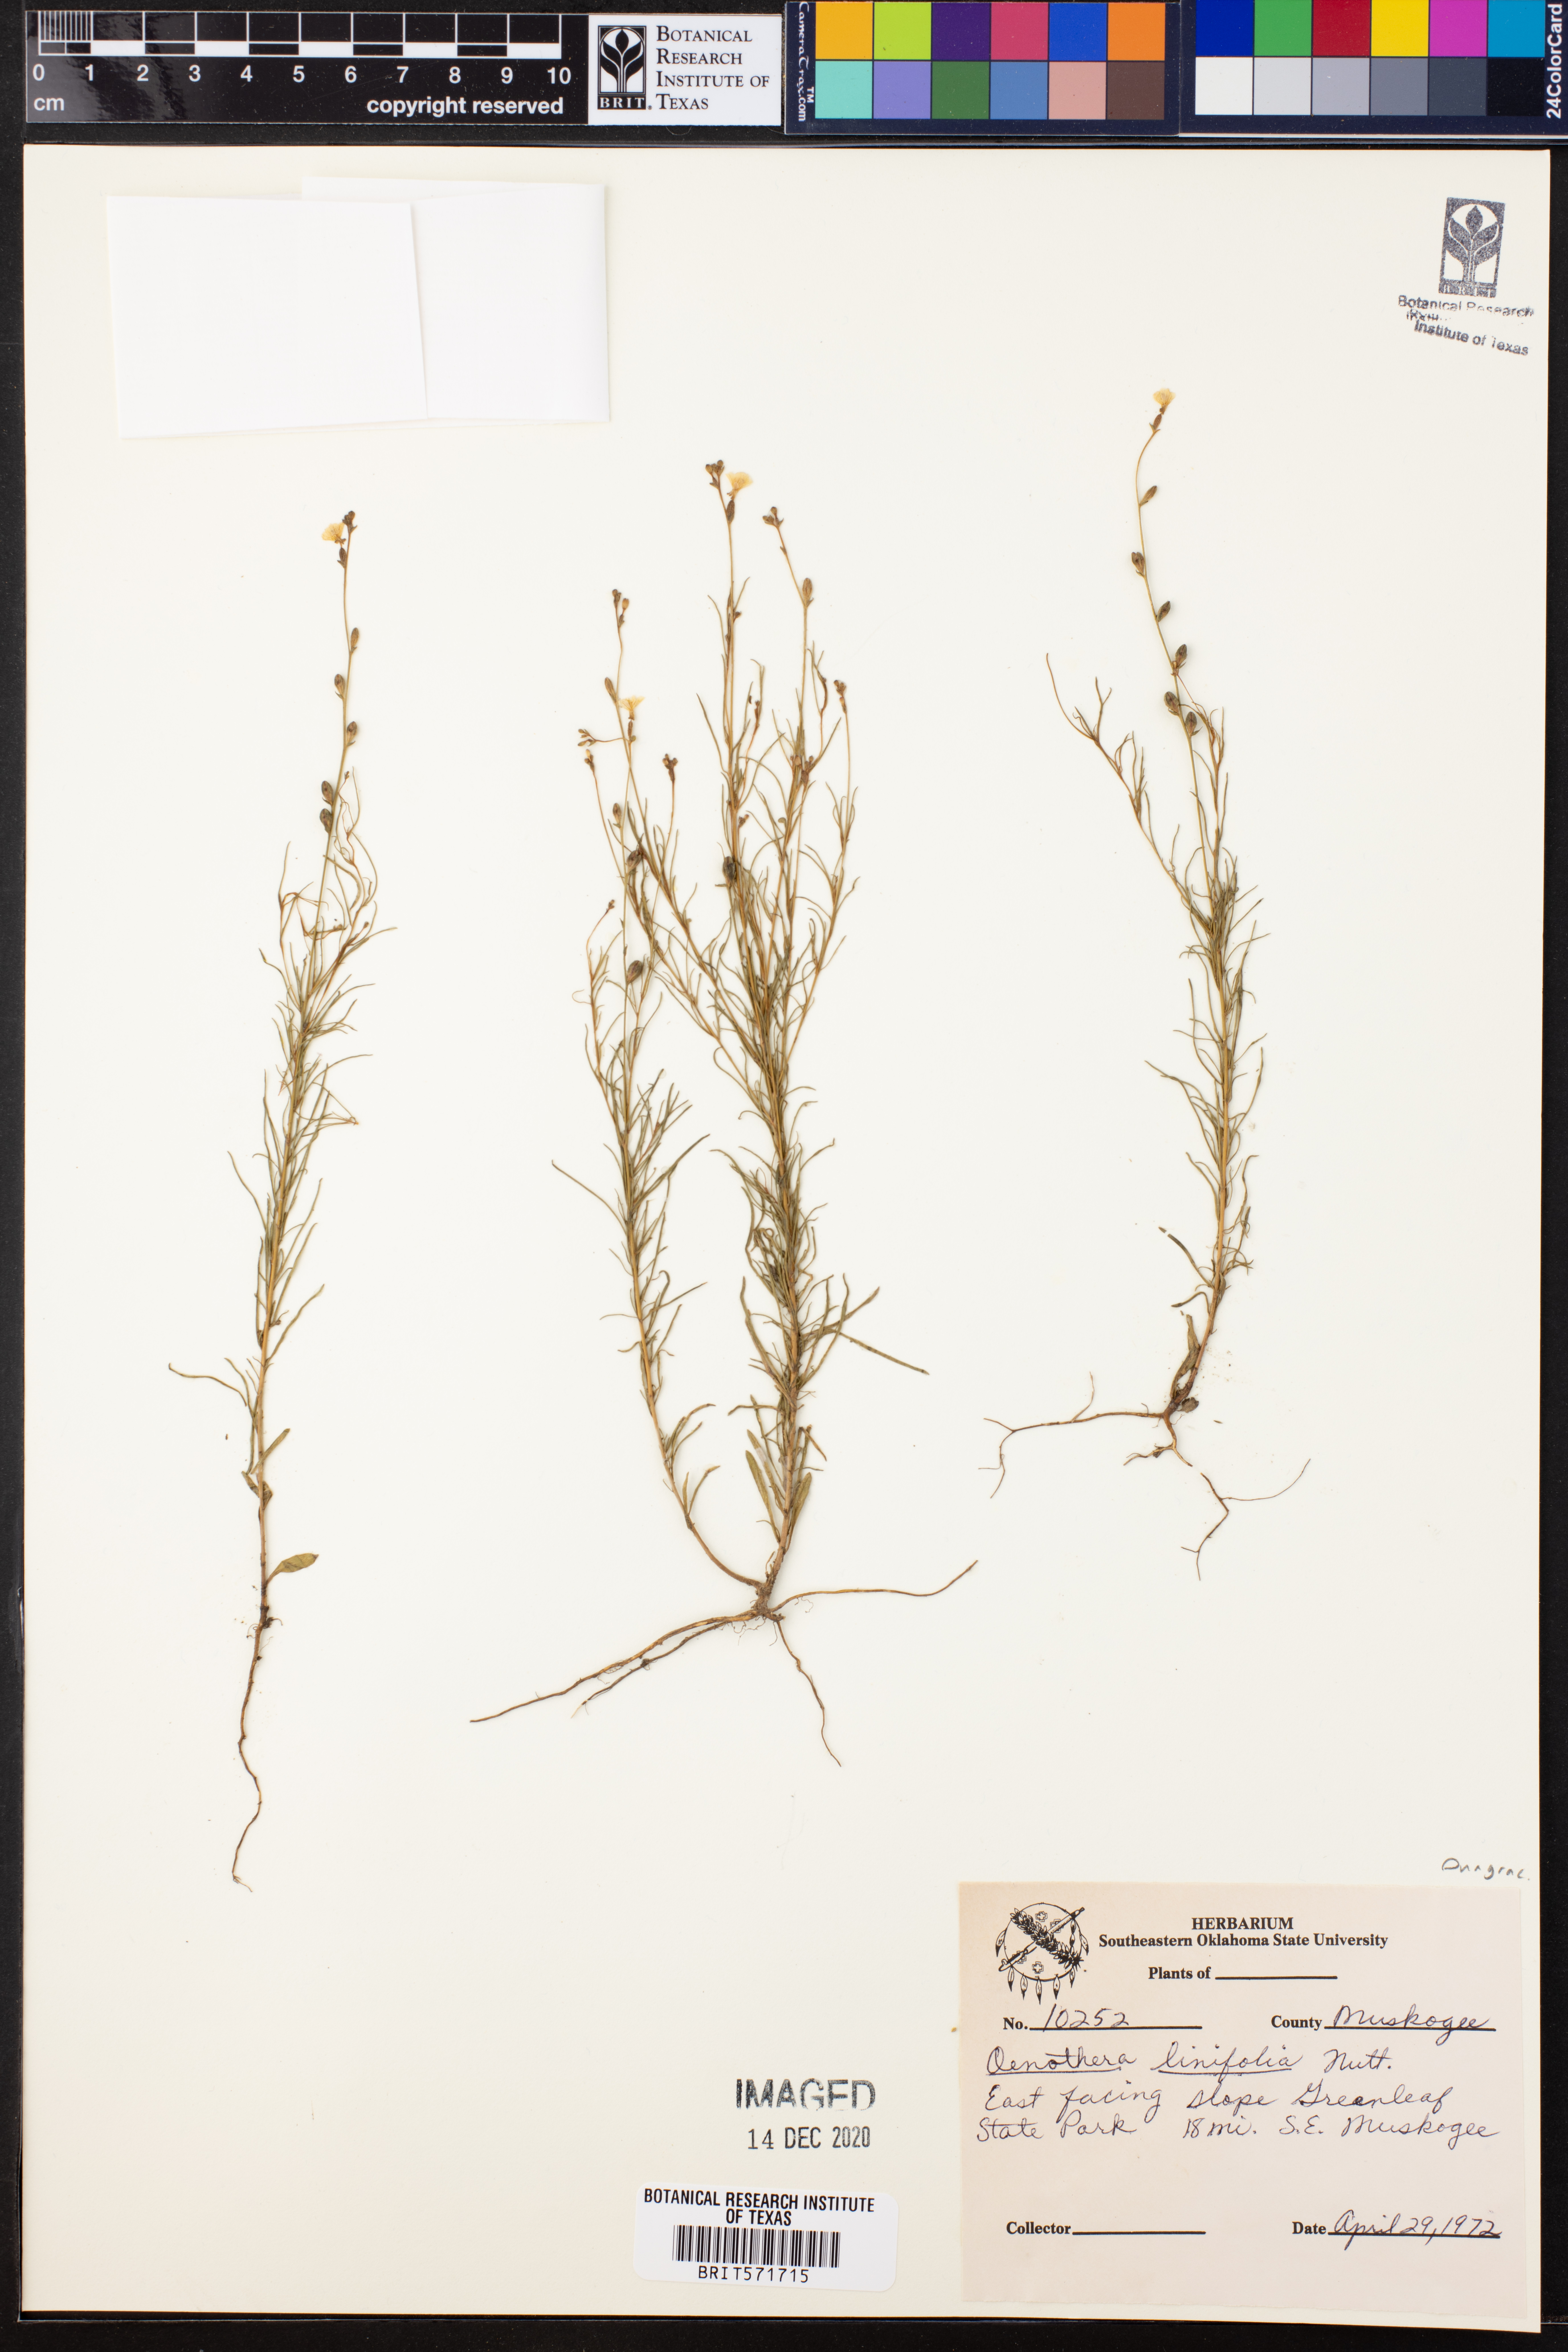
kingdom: Plantae
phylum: Tracheophyta
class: Magnoliopsida
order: Myrtales
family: Onagraceae
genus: Oenothera
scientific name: Oenothera linifolia
